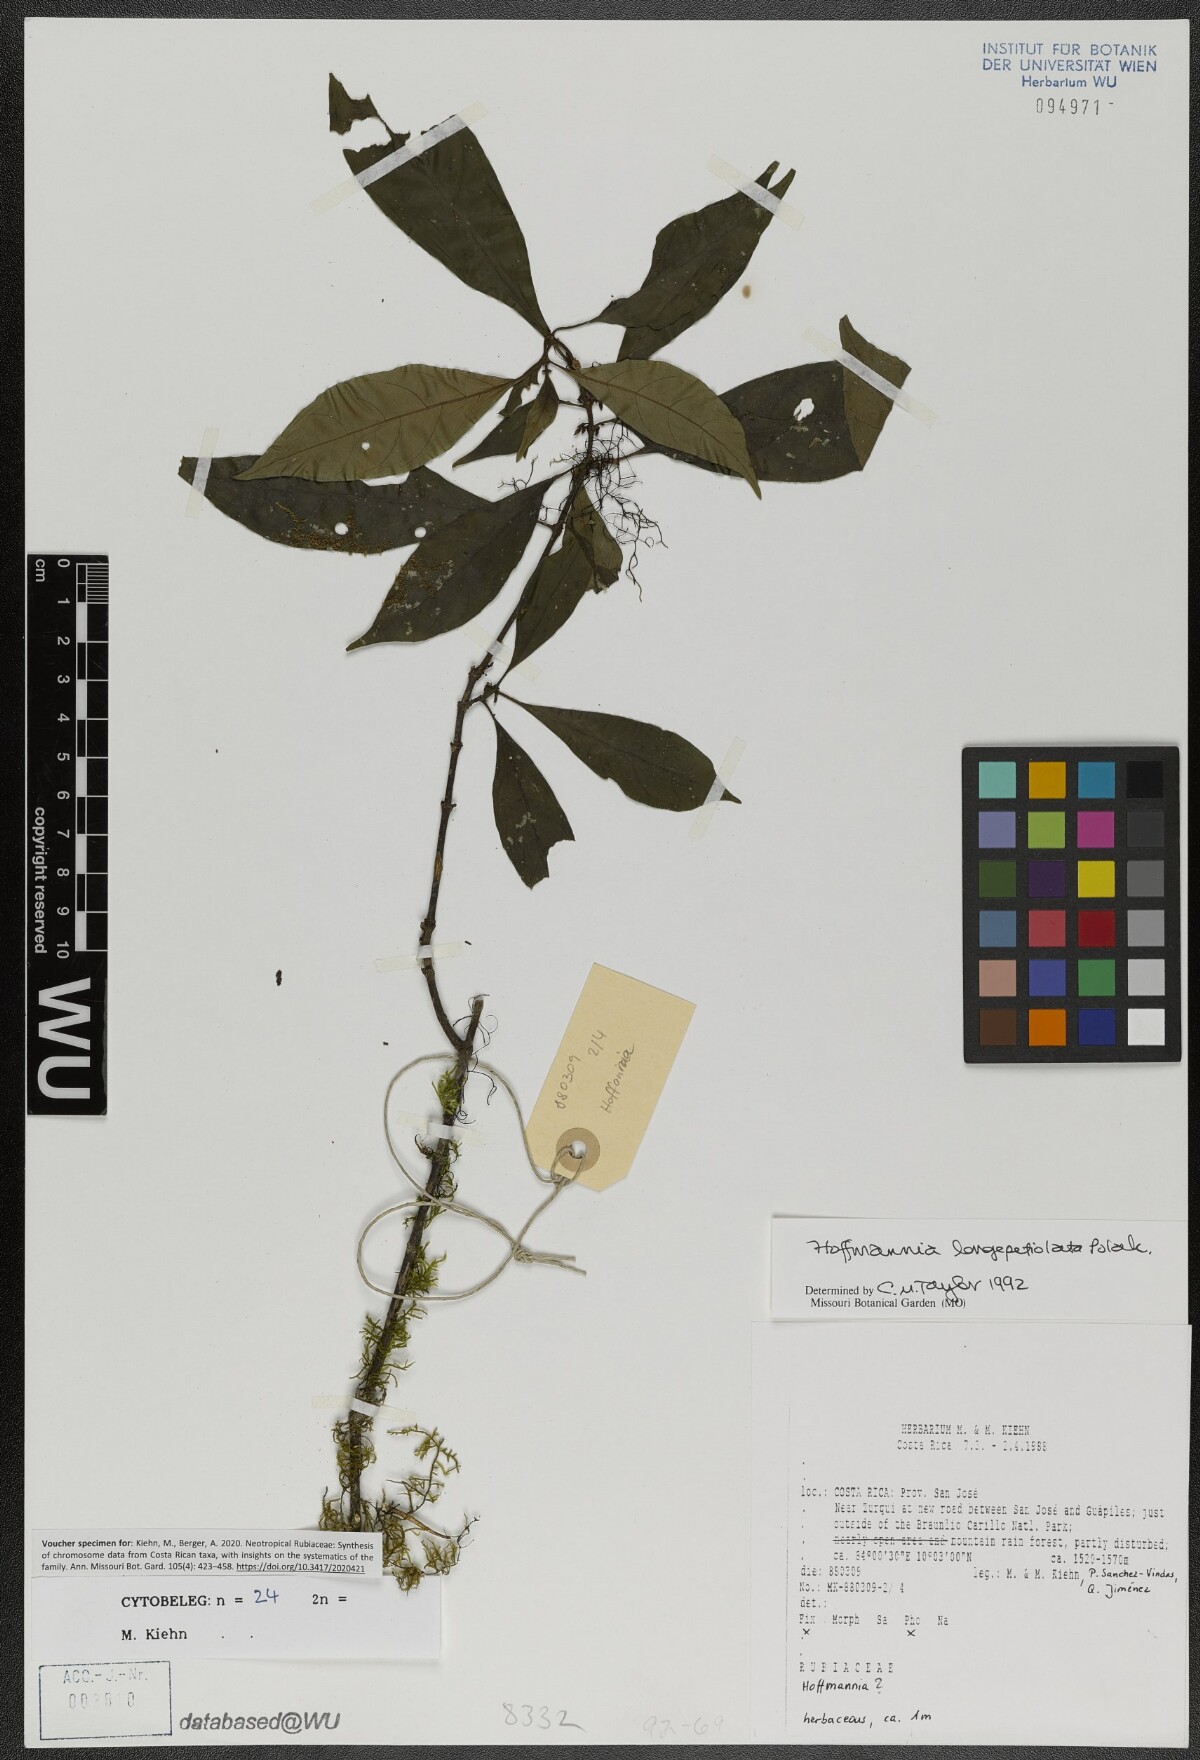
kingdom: Plantae
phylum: Tracheophyta
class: Magnoliopsida
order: Gentianales
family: Rubiaceae
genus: Hoffmannia
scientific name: Hoffmannia longipetiolata
